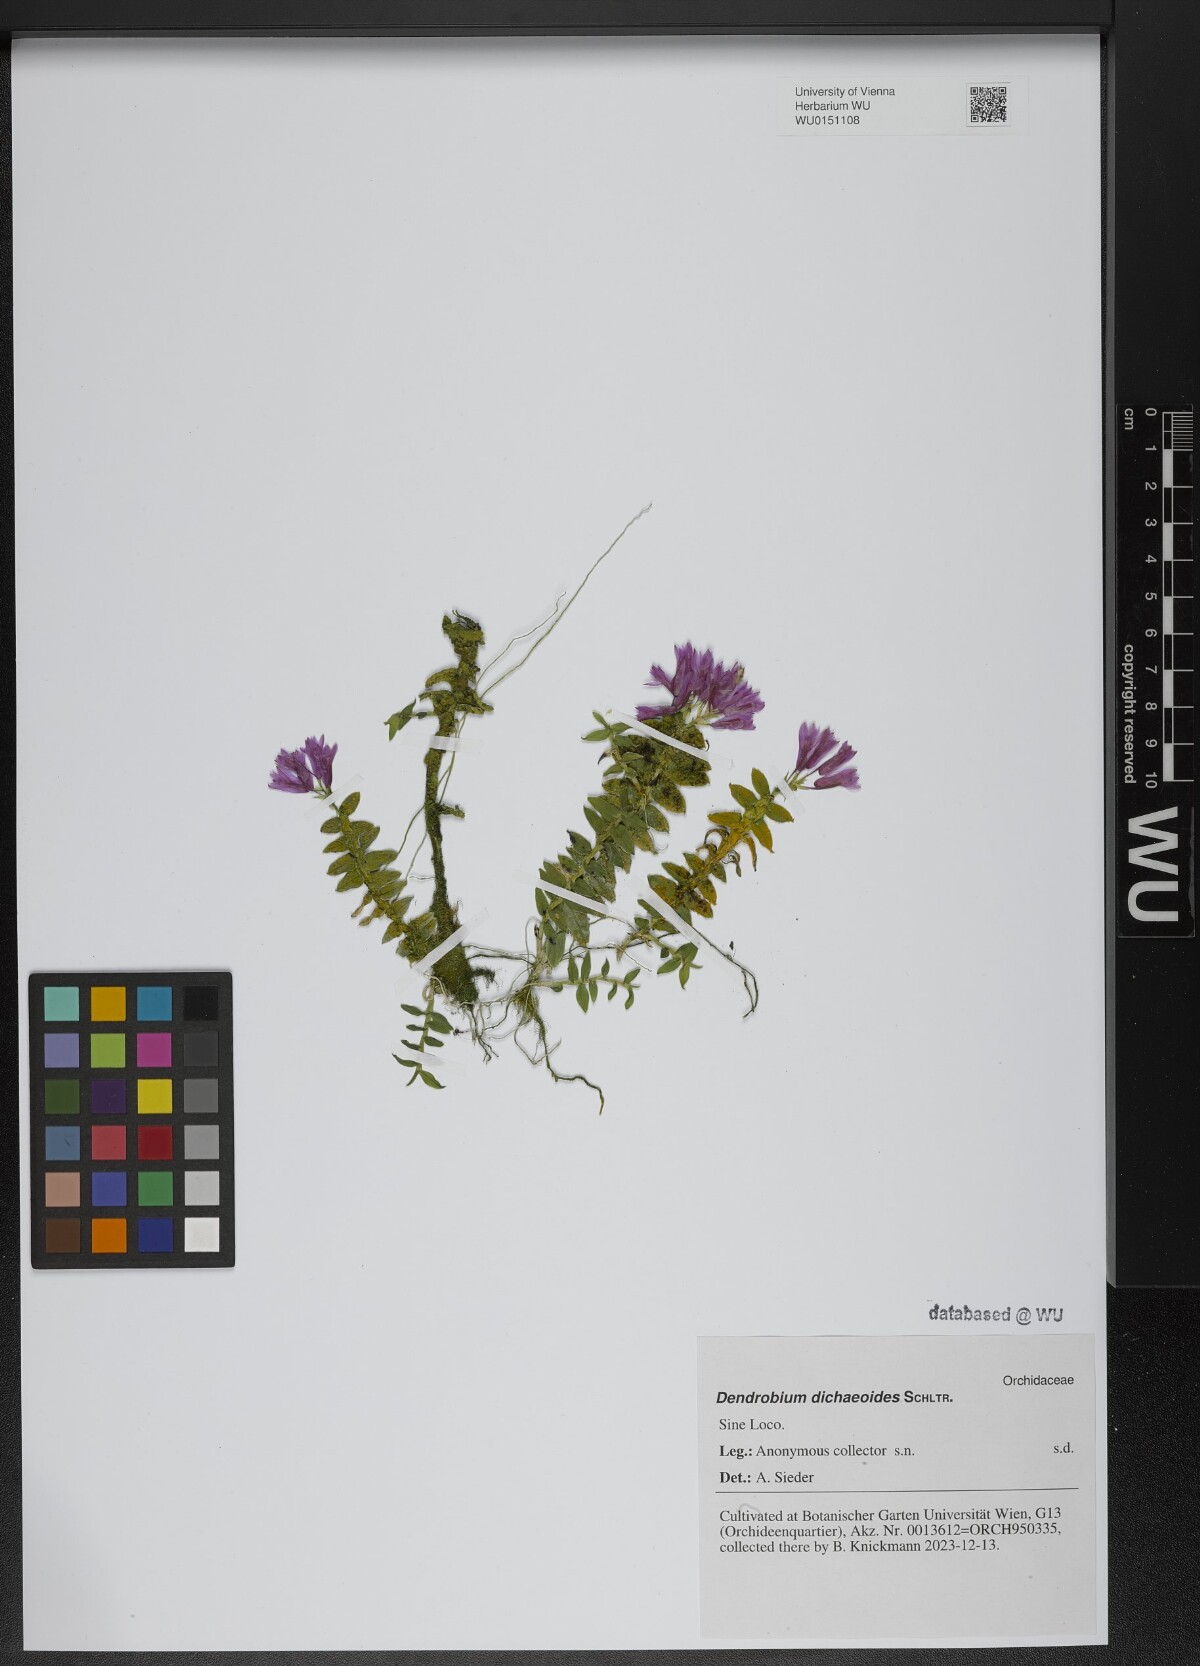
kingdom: Plantae
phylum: Tracheophyta
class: Liliopsida
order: Asparagales
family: Orchidaceae
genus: Dendrobium
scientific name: Dendrobium dichaeoides
